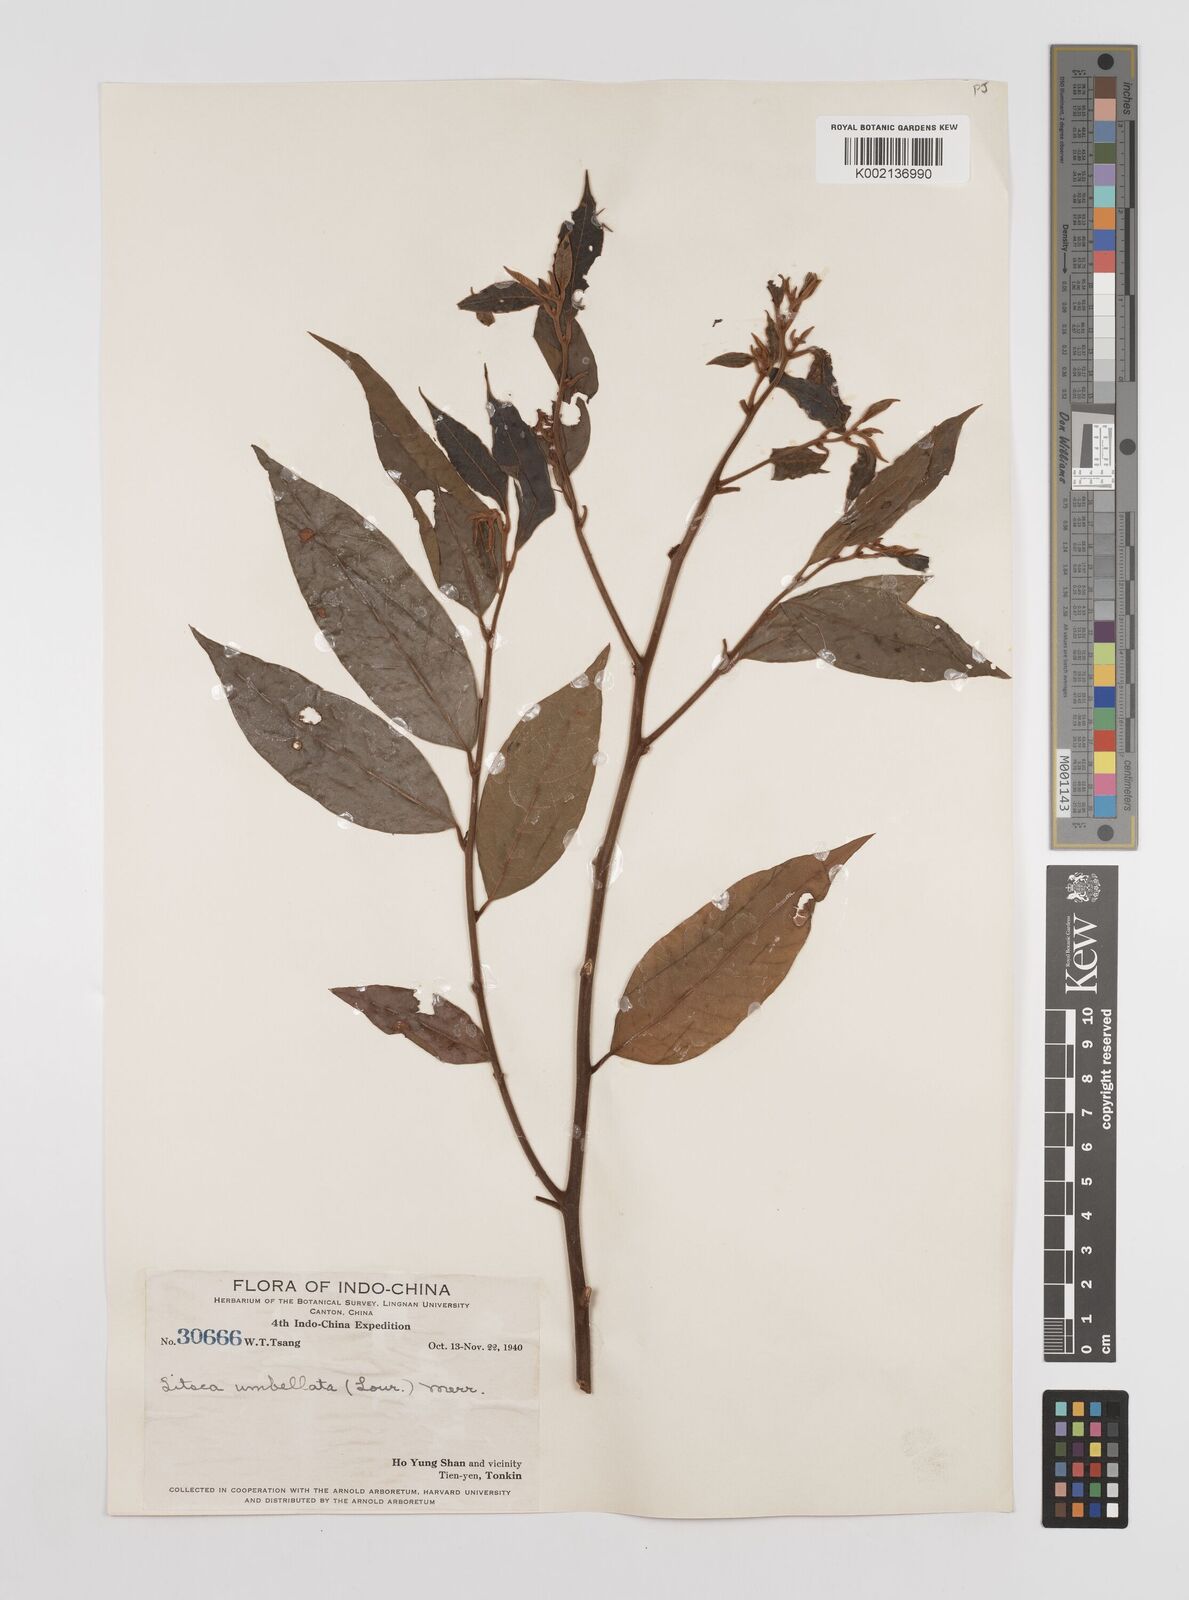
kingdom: Plantae
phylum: Tracheophyta
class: Magnoliopsida
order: Laurales
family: Lauraceae
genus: Litsea
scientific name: Litsea umbellata
